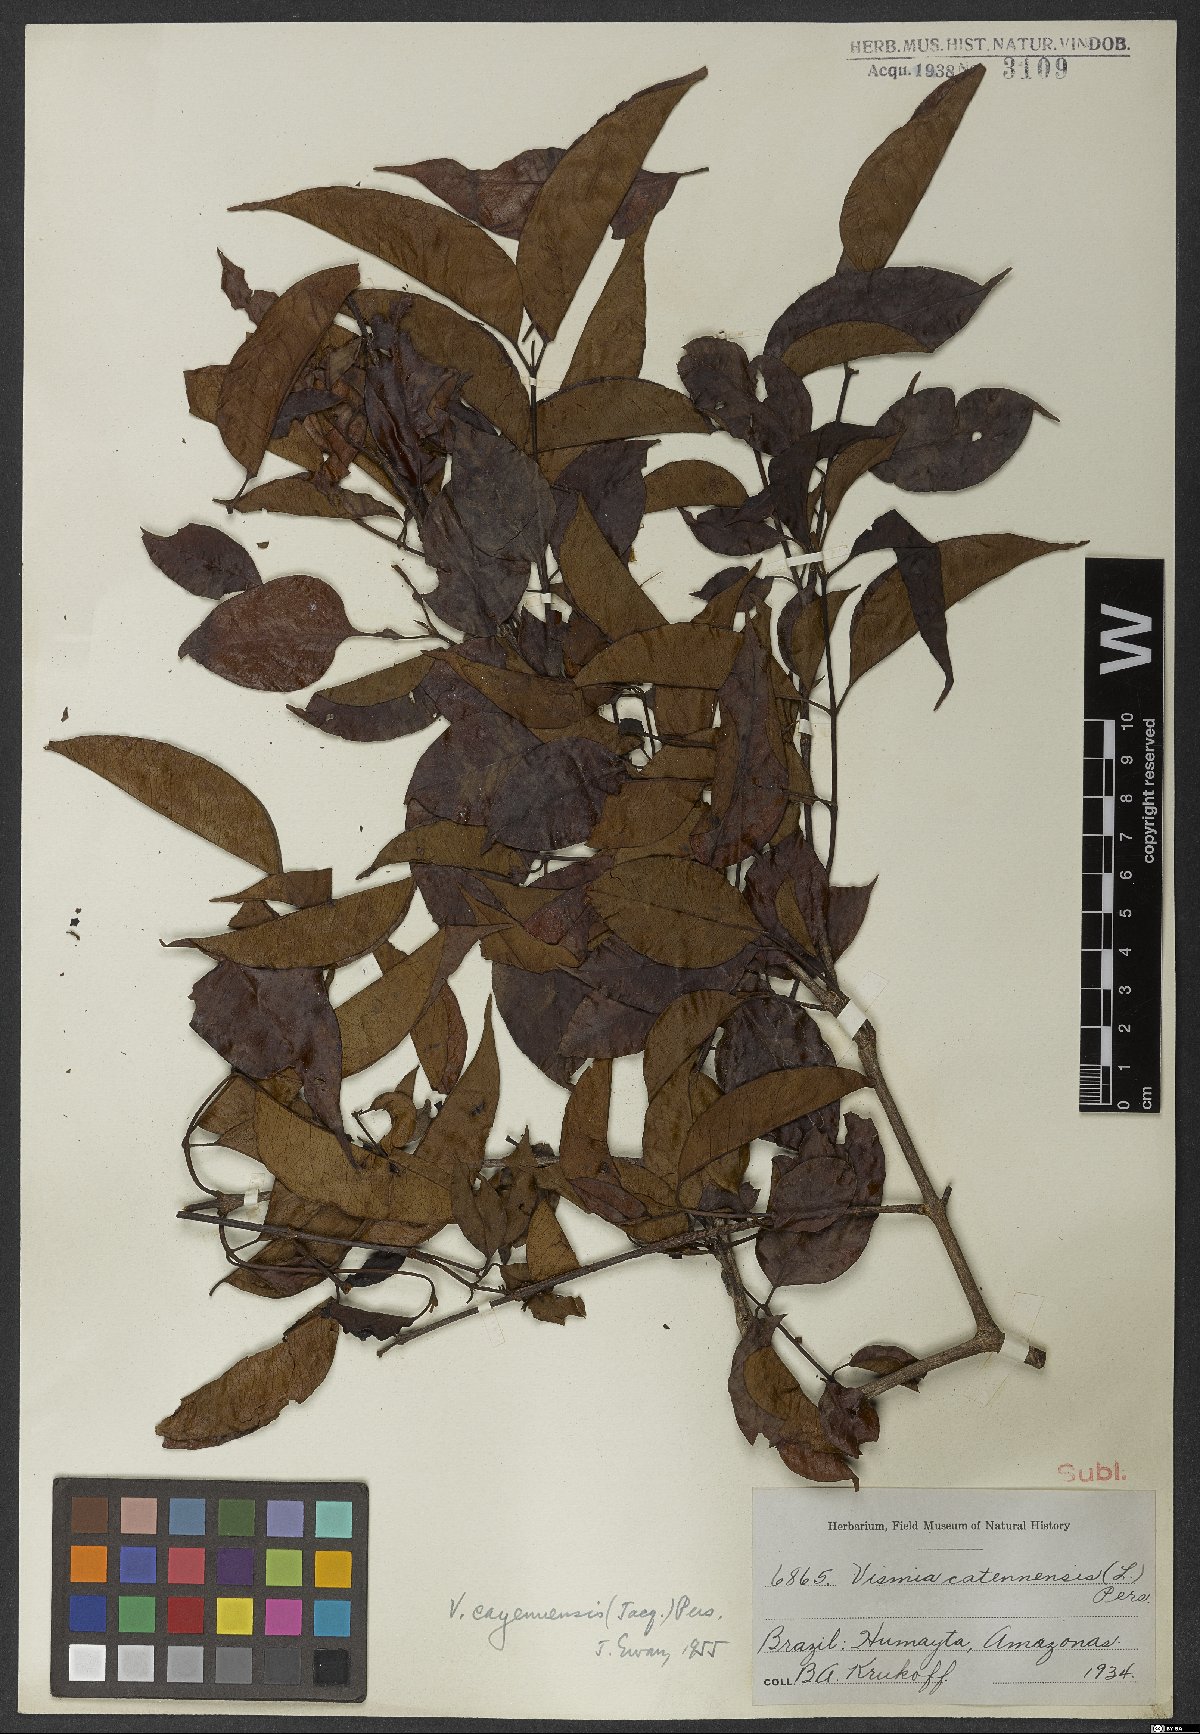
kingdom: Plantae
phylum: Tracheophyta
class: Magnoliopsida
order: Malpighiales
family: Hypericaceae
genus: Vismia
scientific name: Vismia cayennensis
